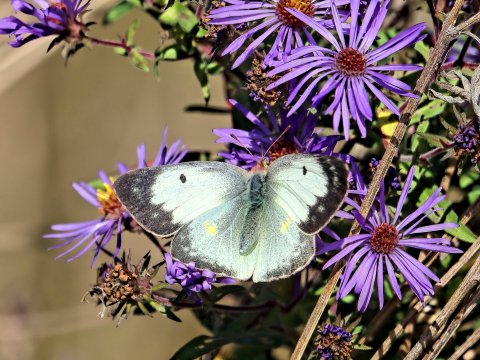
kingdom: Animalia
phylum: Arthropoda
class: Insecta
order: Lepidoptera
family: Pieridae
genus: Colias
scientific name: Colias philodice
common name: Clouded Sulphur
